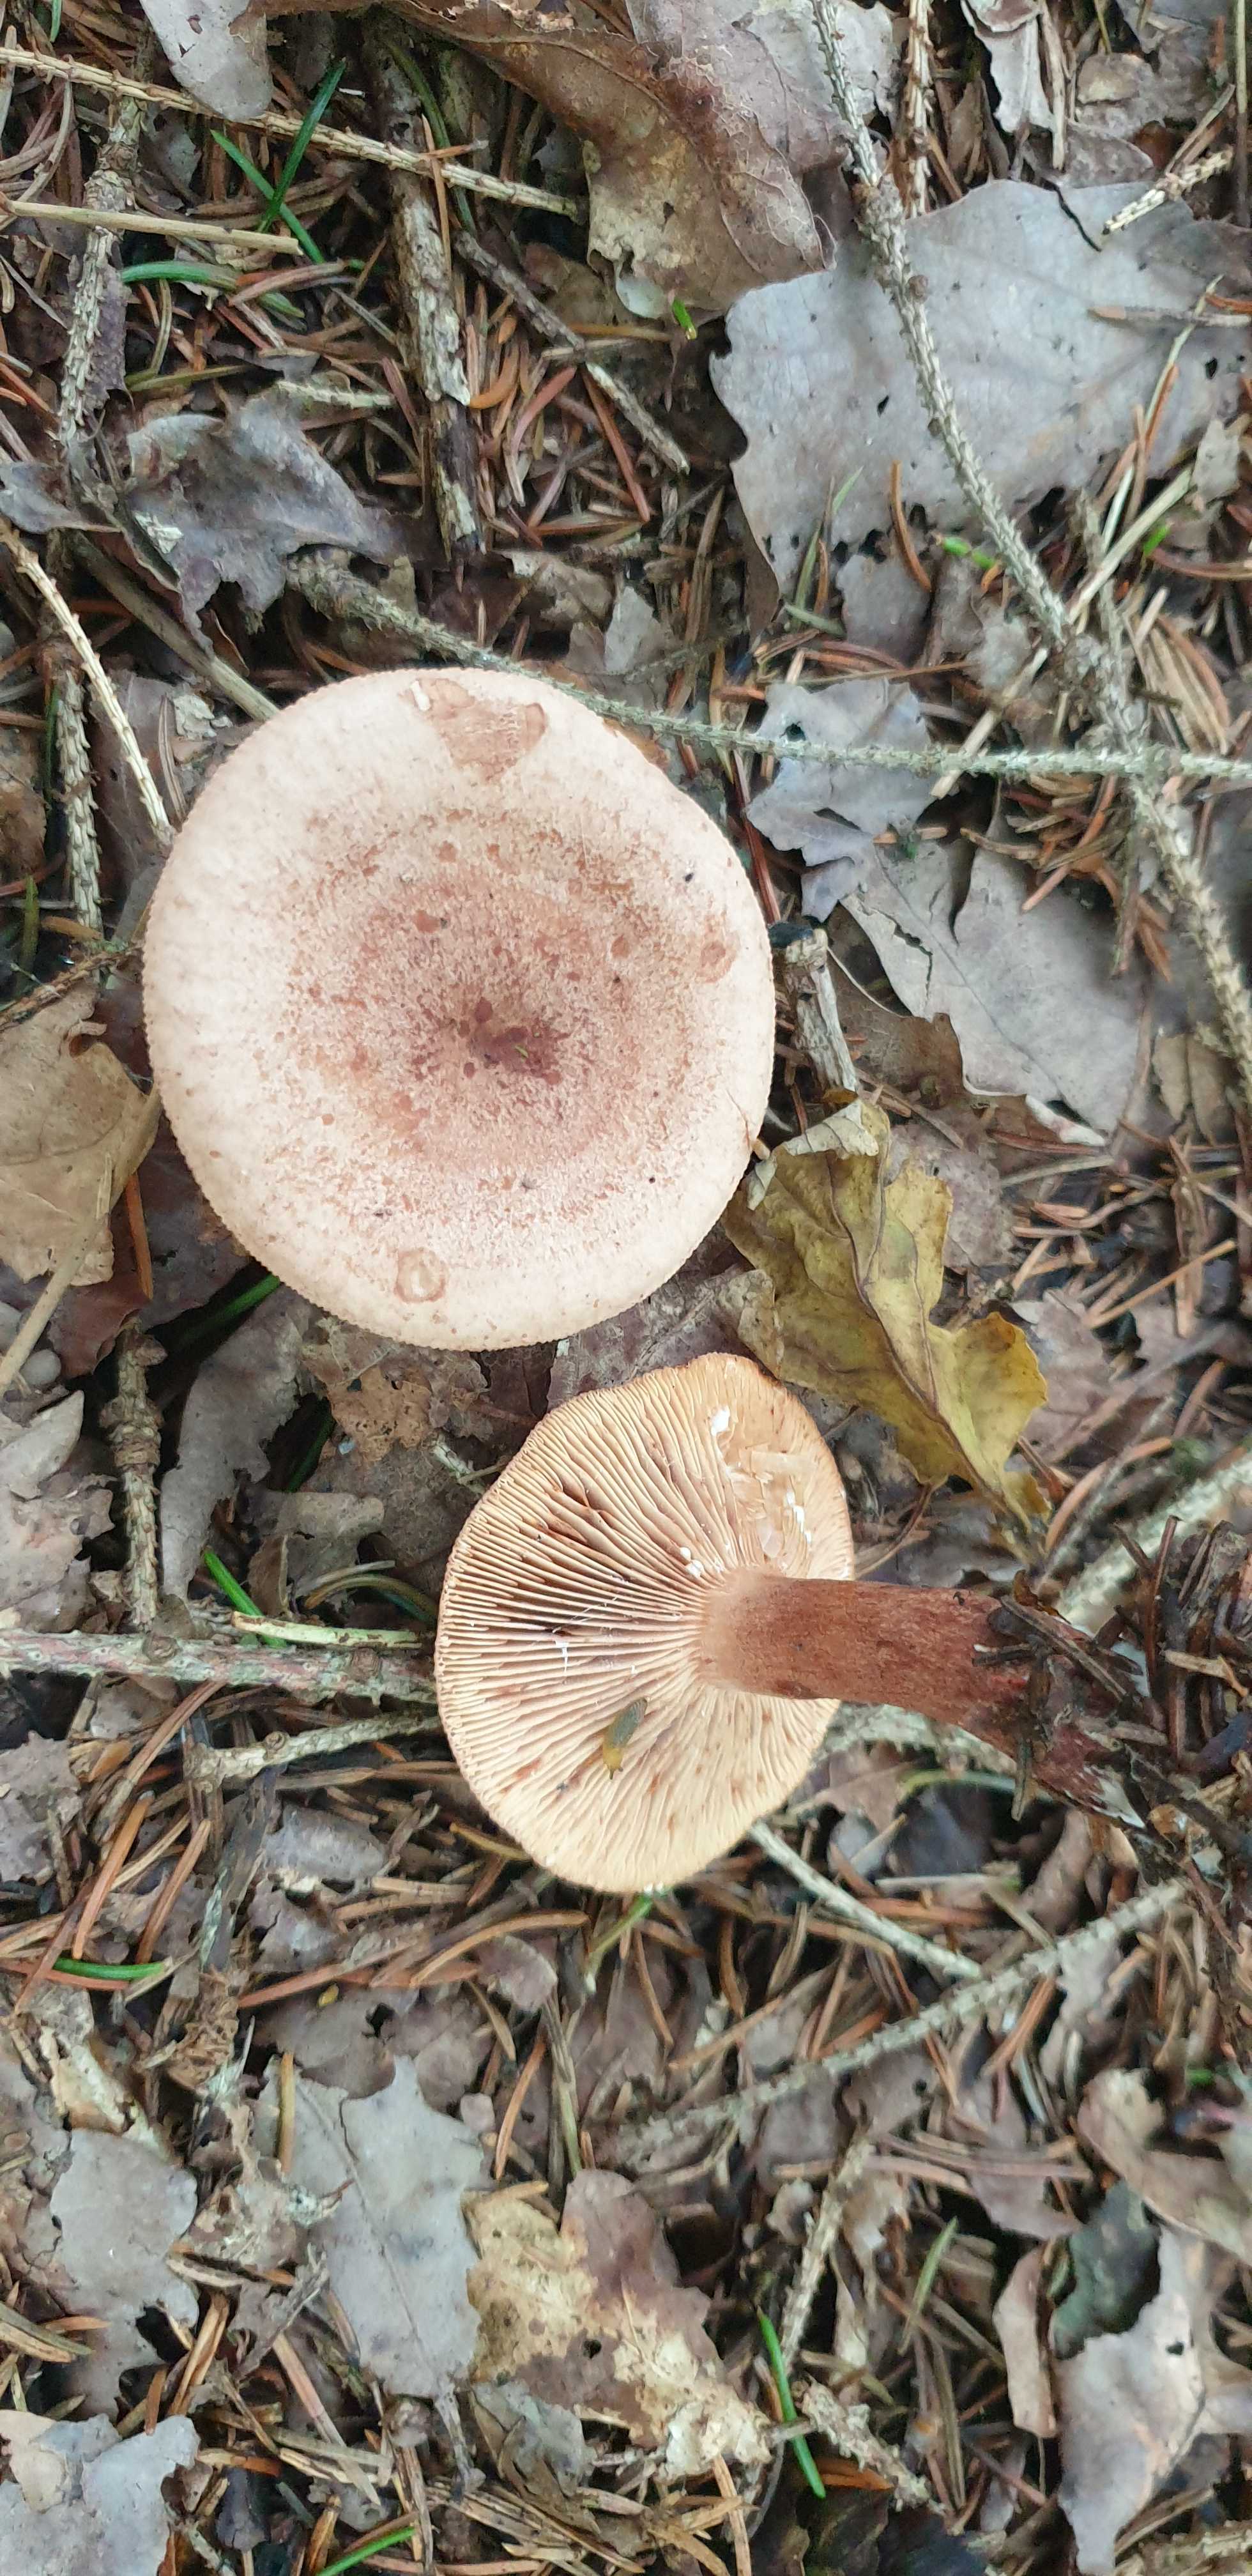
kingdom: Fungi
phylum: Basidiomycota
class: Agaricomycetes
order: Russulales
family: Russulaceae
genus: Lactarius
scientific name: Lactarius quietus
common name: ege-mælkehat
